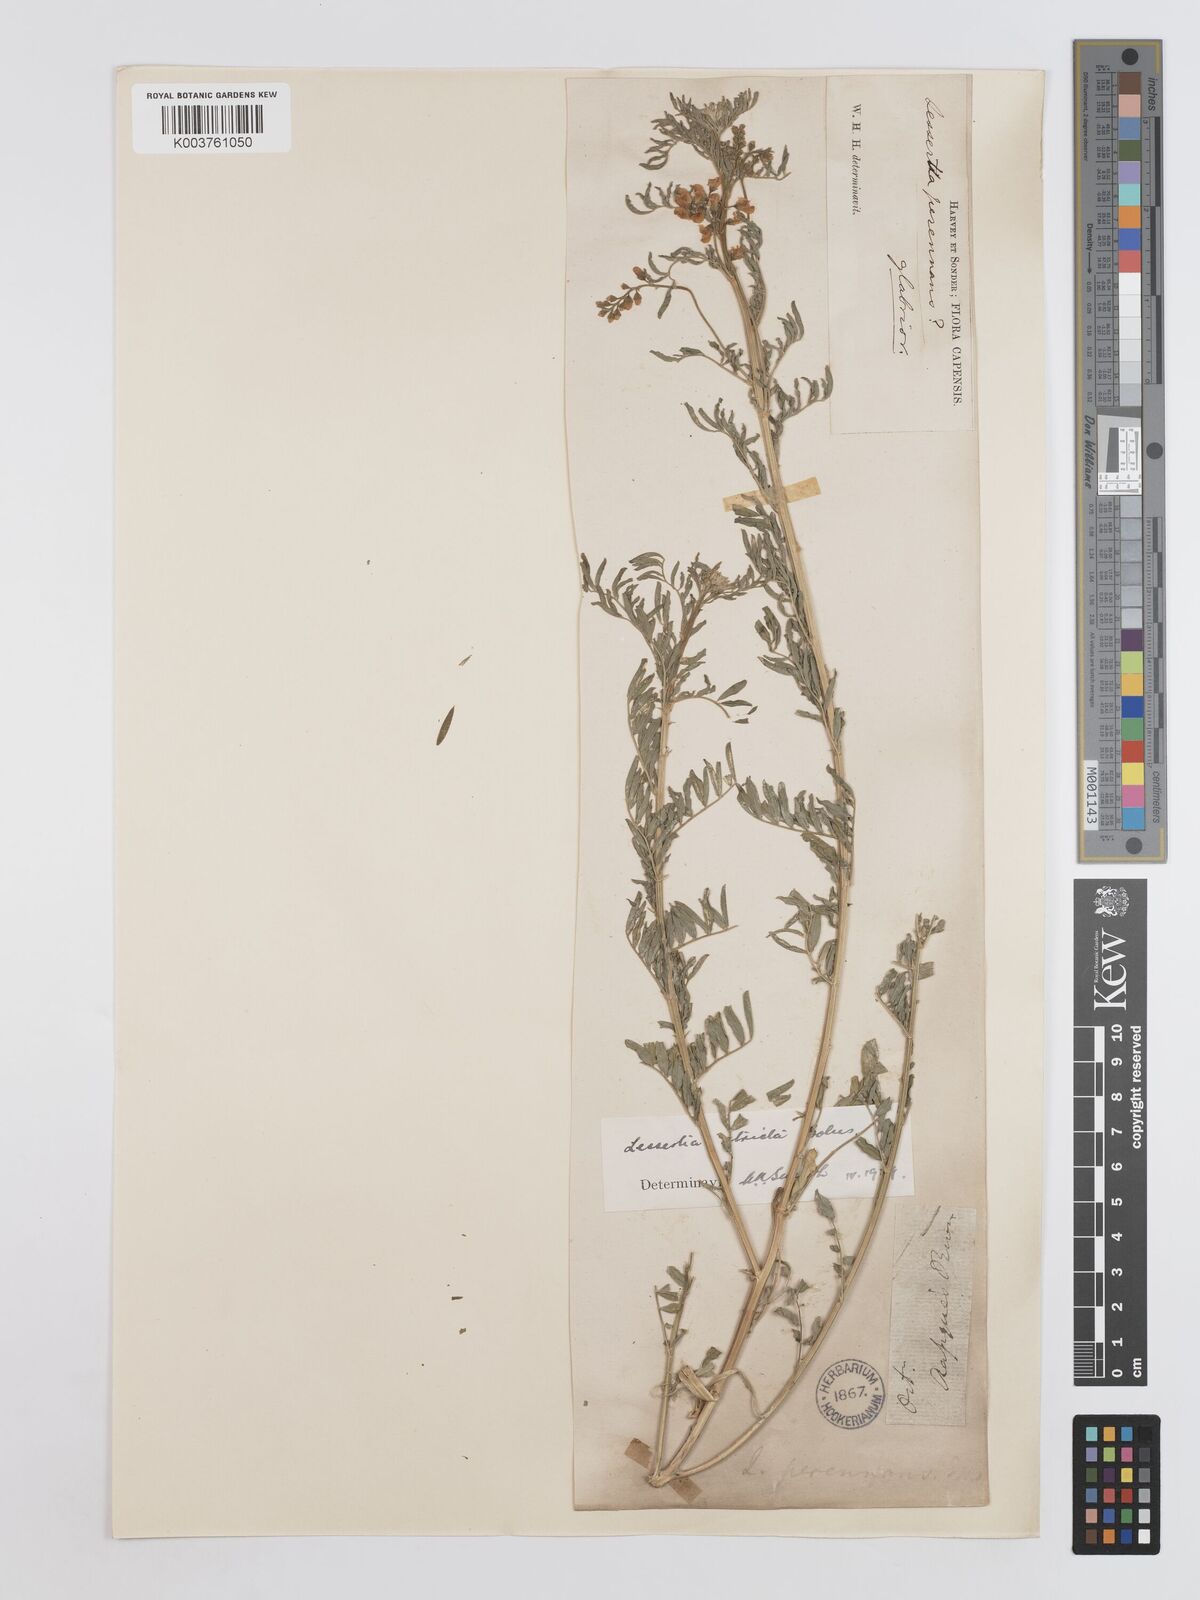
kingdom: Plantae
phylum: Tracheophyta
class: Magnoliopsida
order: Fabales
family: Fabaceae
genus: Lessertia
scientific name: Lessertia stricta
